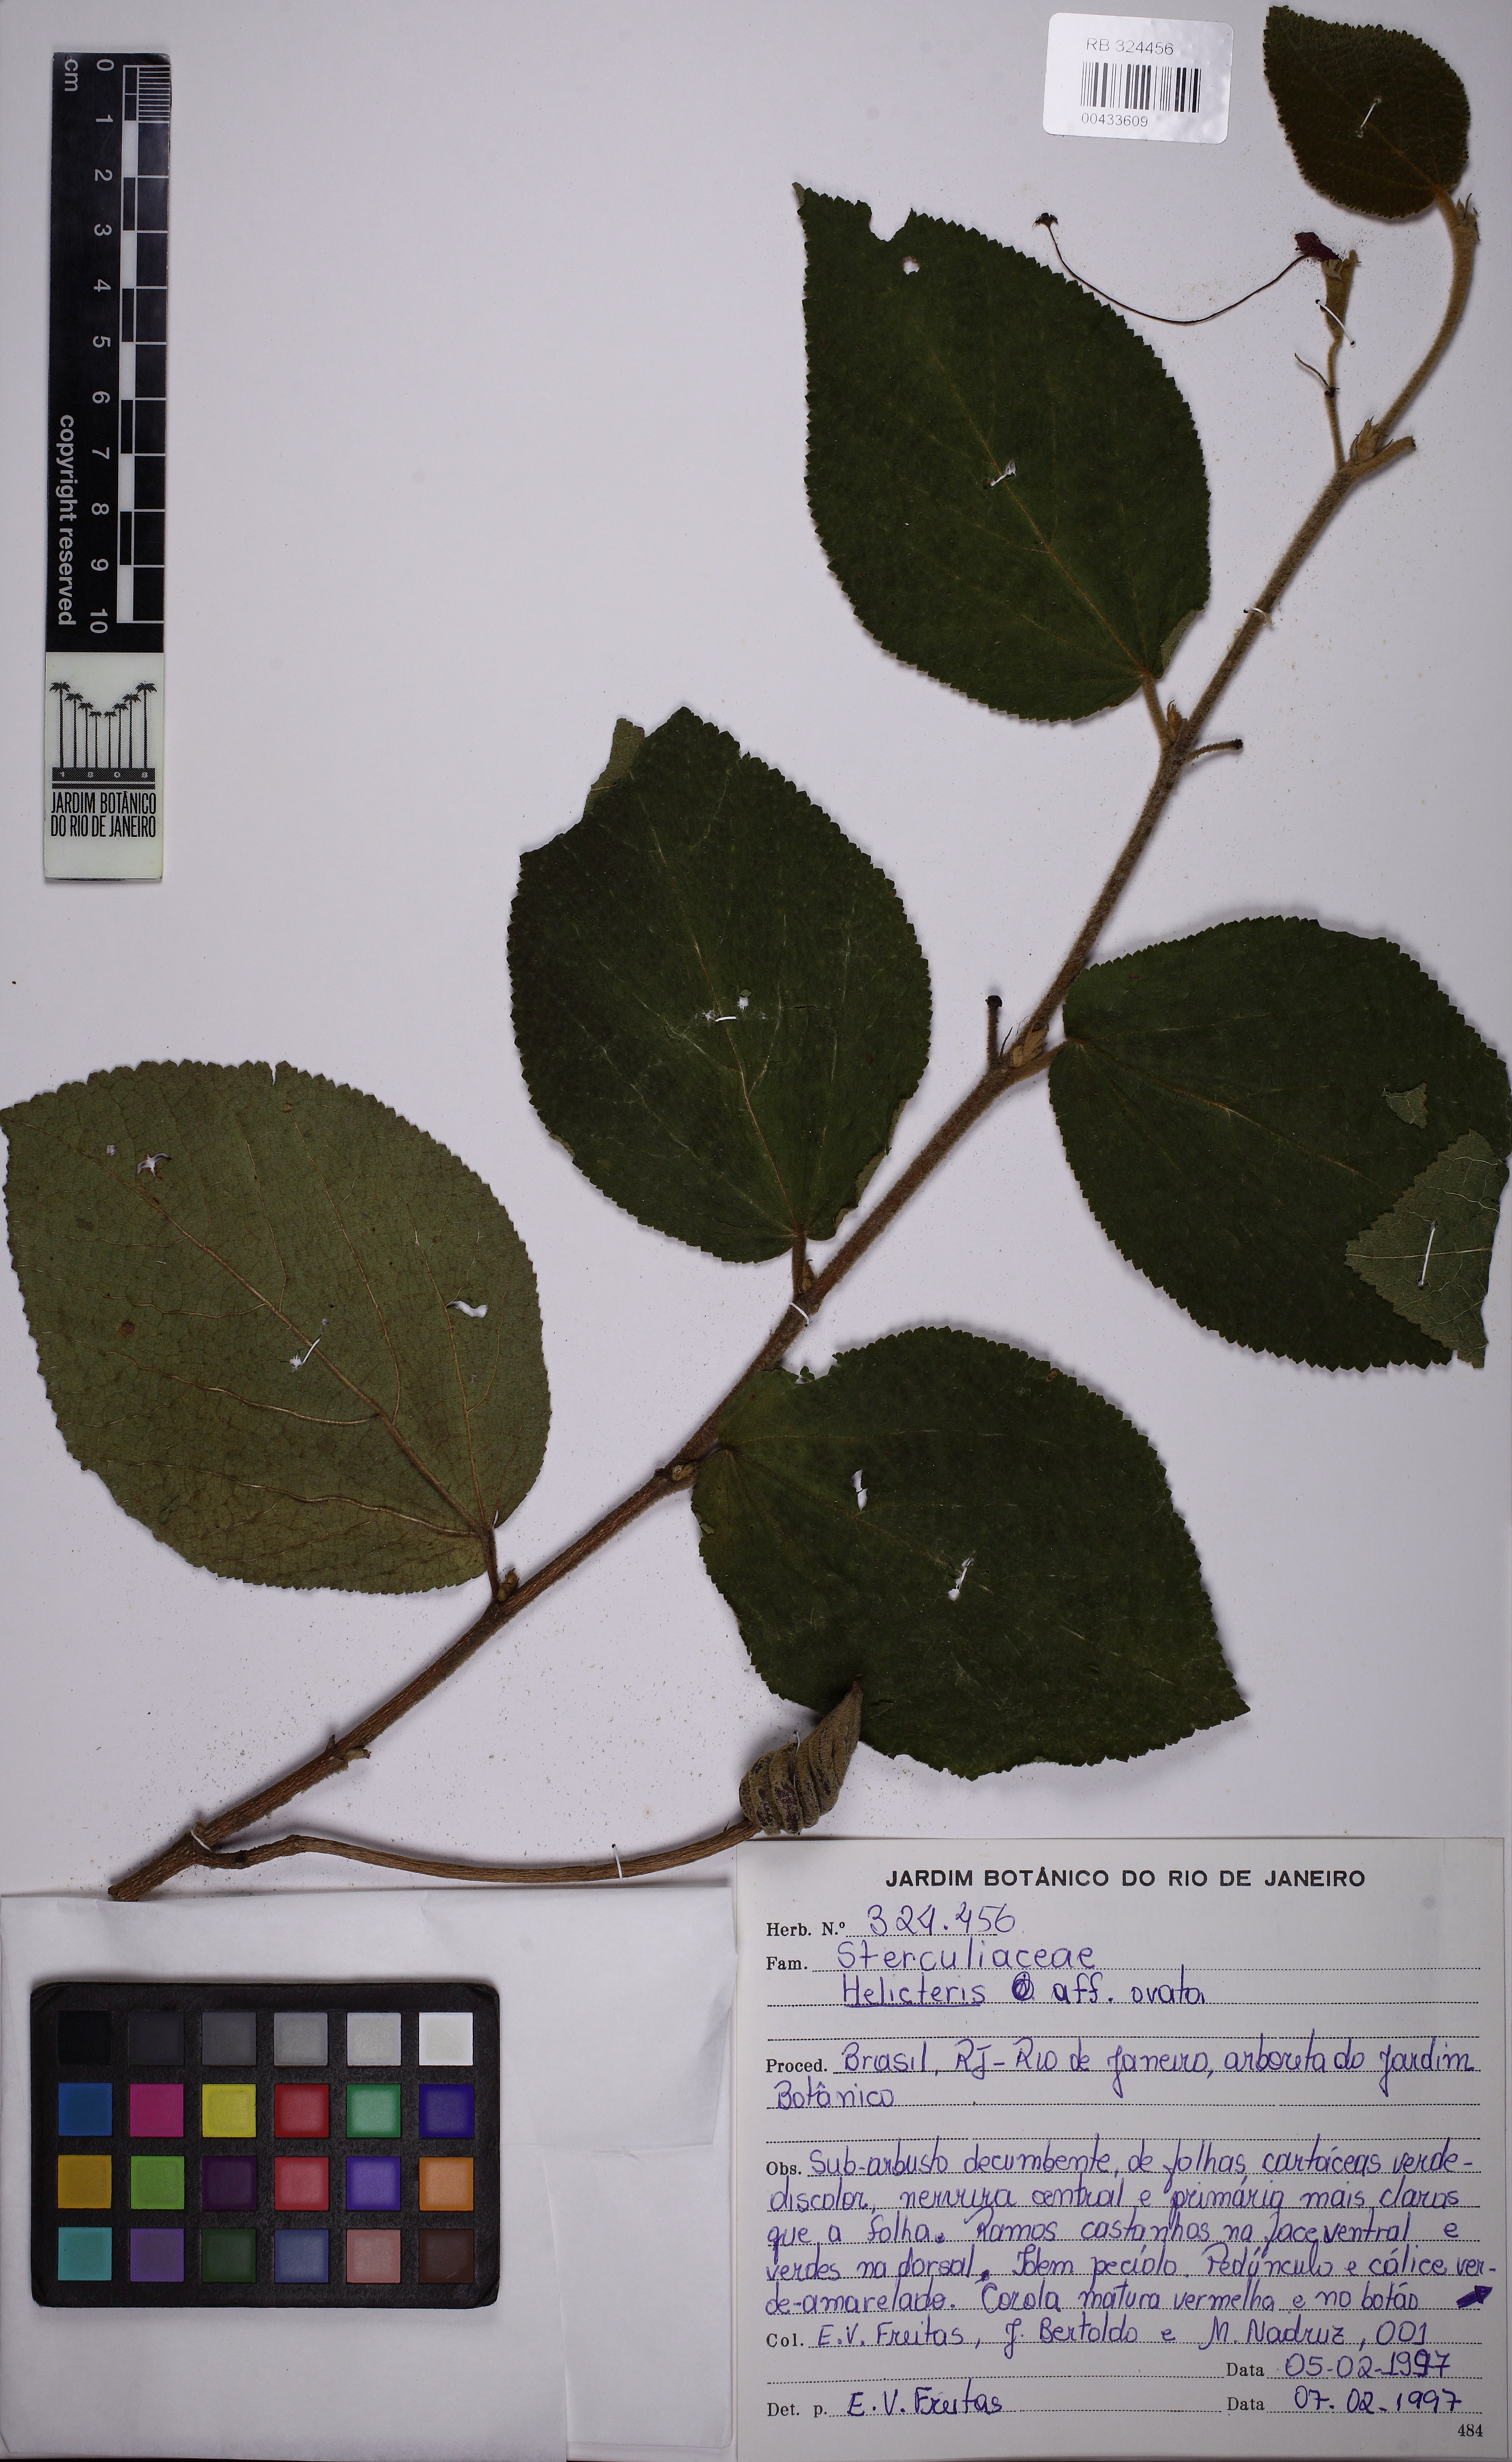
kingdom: Plantae
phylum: Tracheophyta
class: Magnoliopsida
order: Malvales
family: Malvaceae
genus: Helicteres
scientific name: Helicteres ovata
